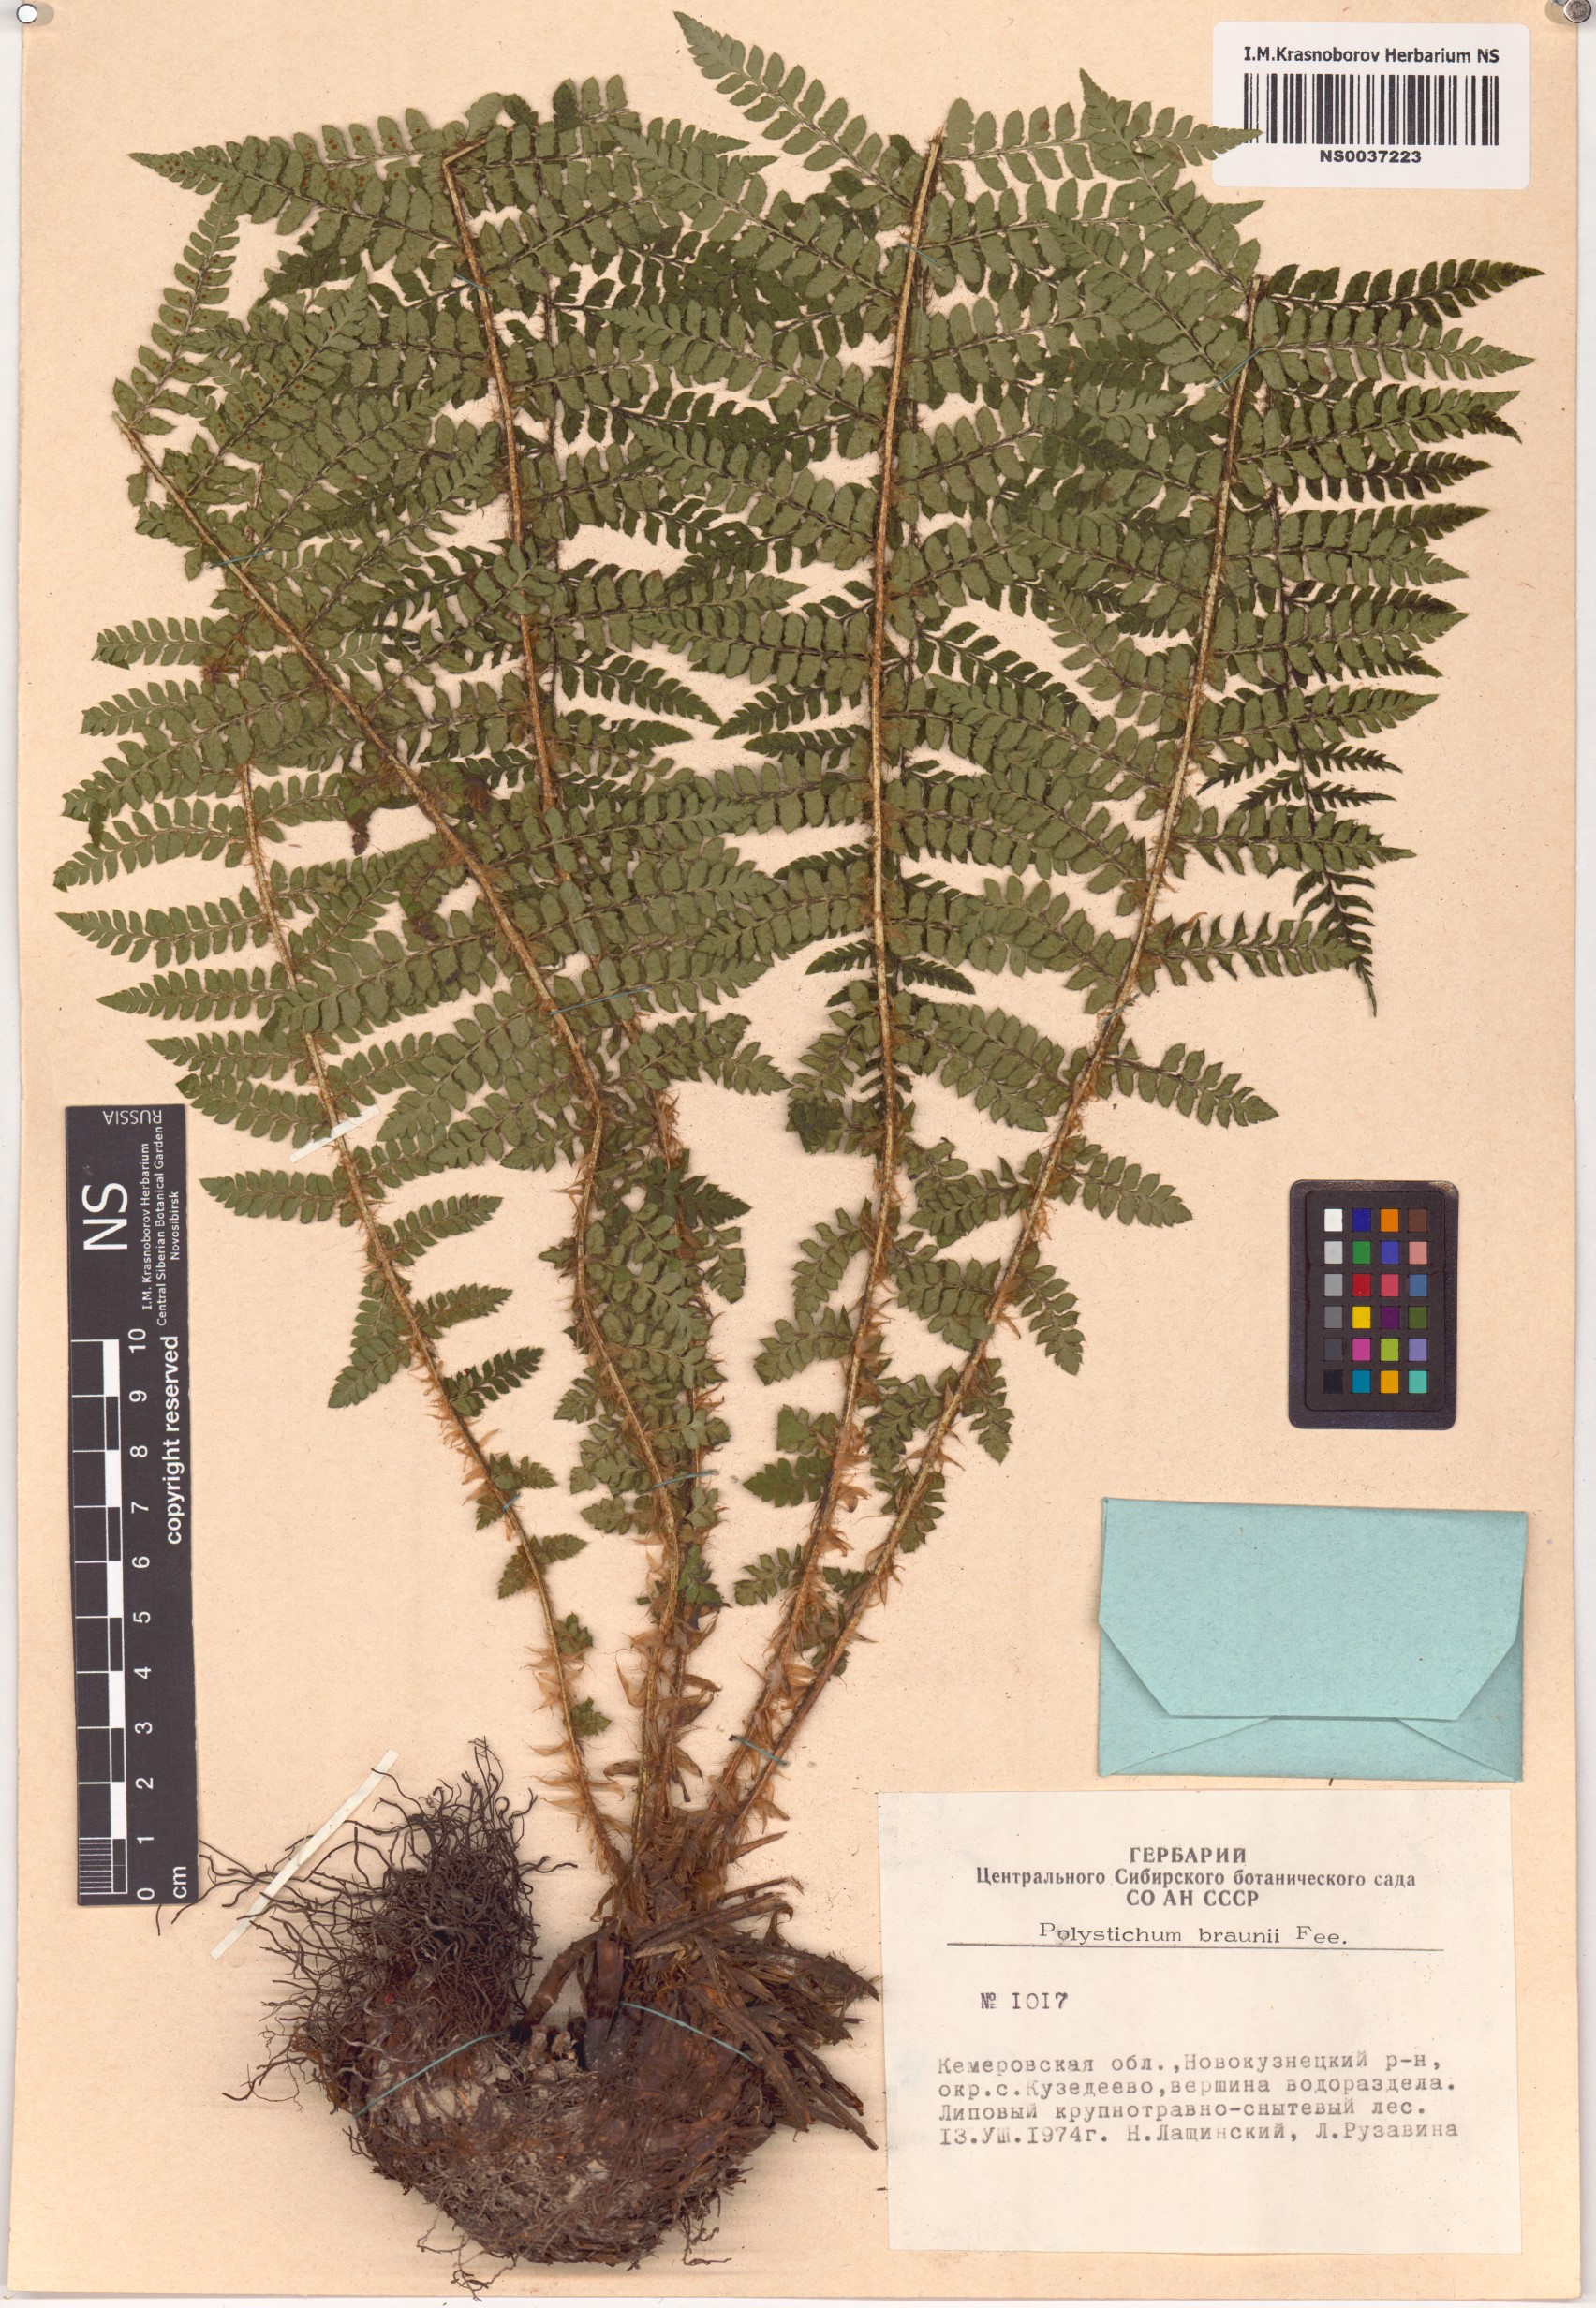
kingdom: Plantae
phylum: Tracheophyta
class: Polypodiopsida
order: Polypodiales
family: Dryopteridaceae
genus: Polystichum
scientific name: Polystichum braunii
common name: Braun's holly fern
